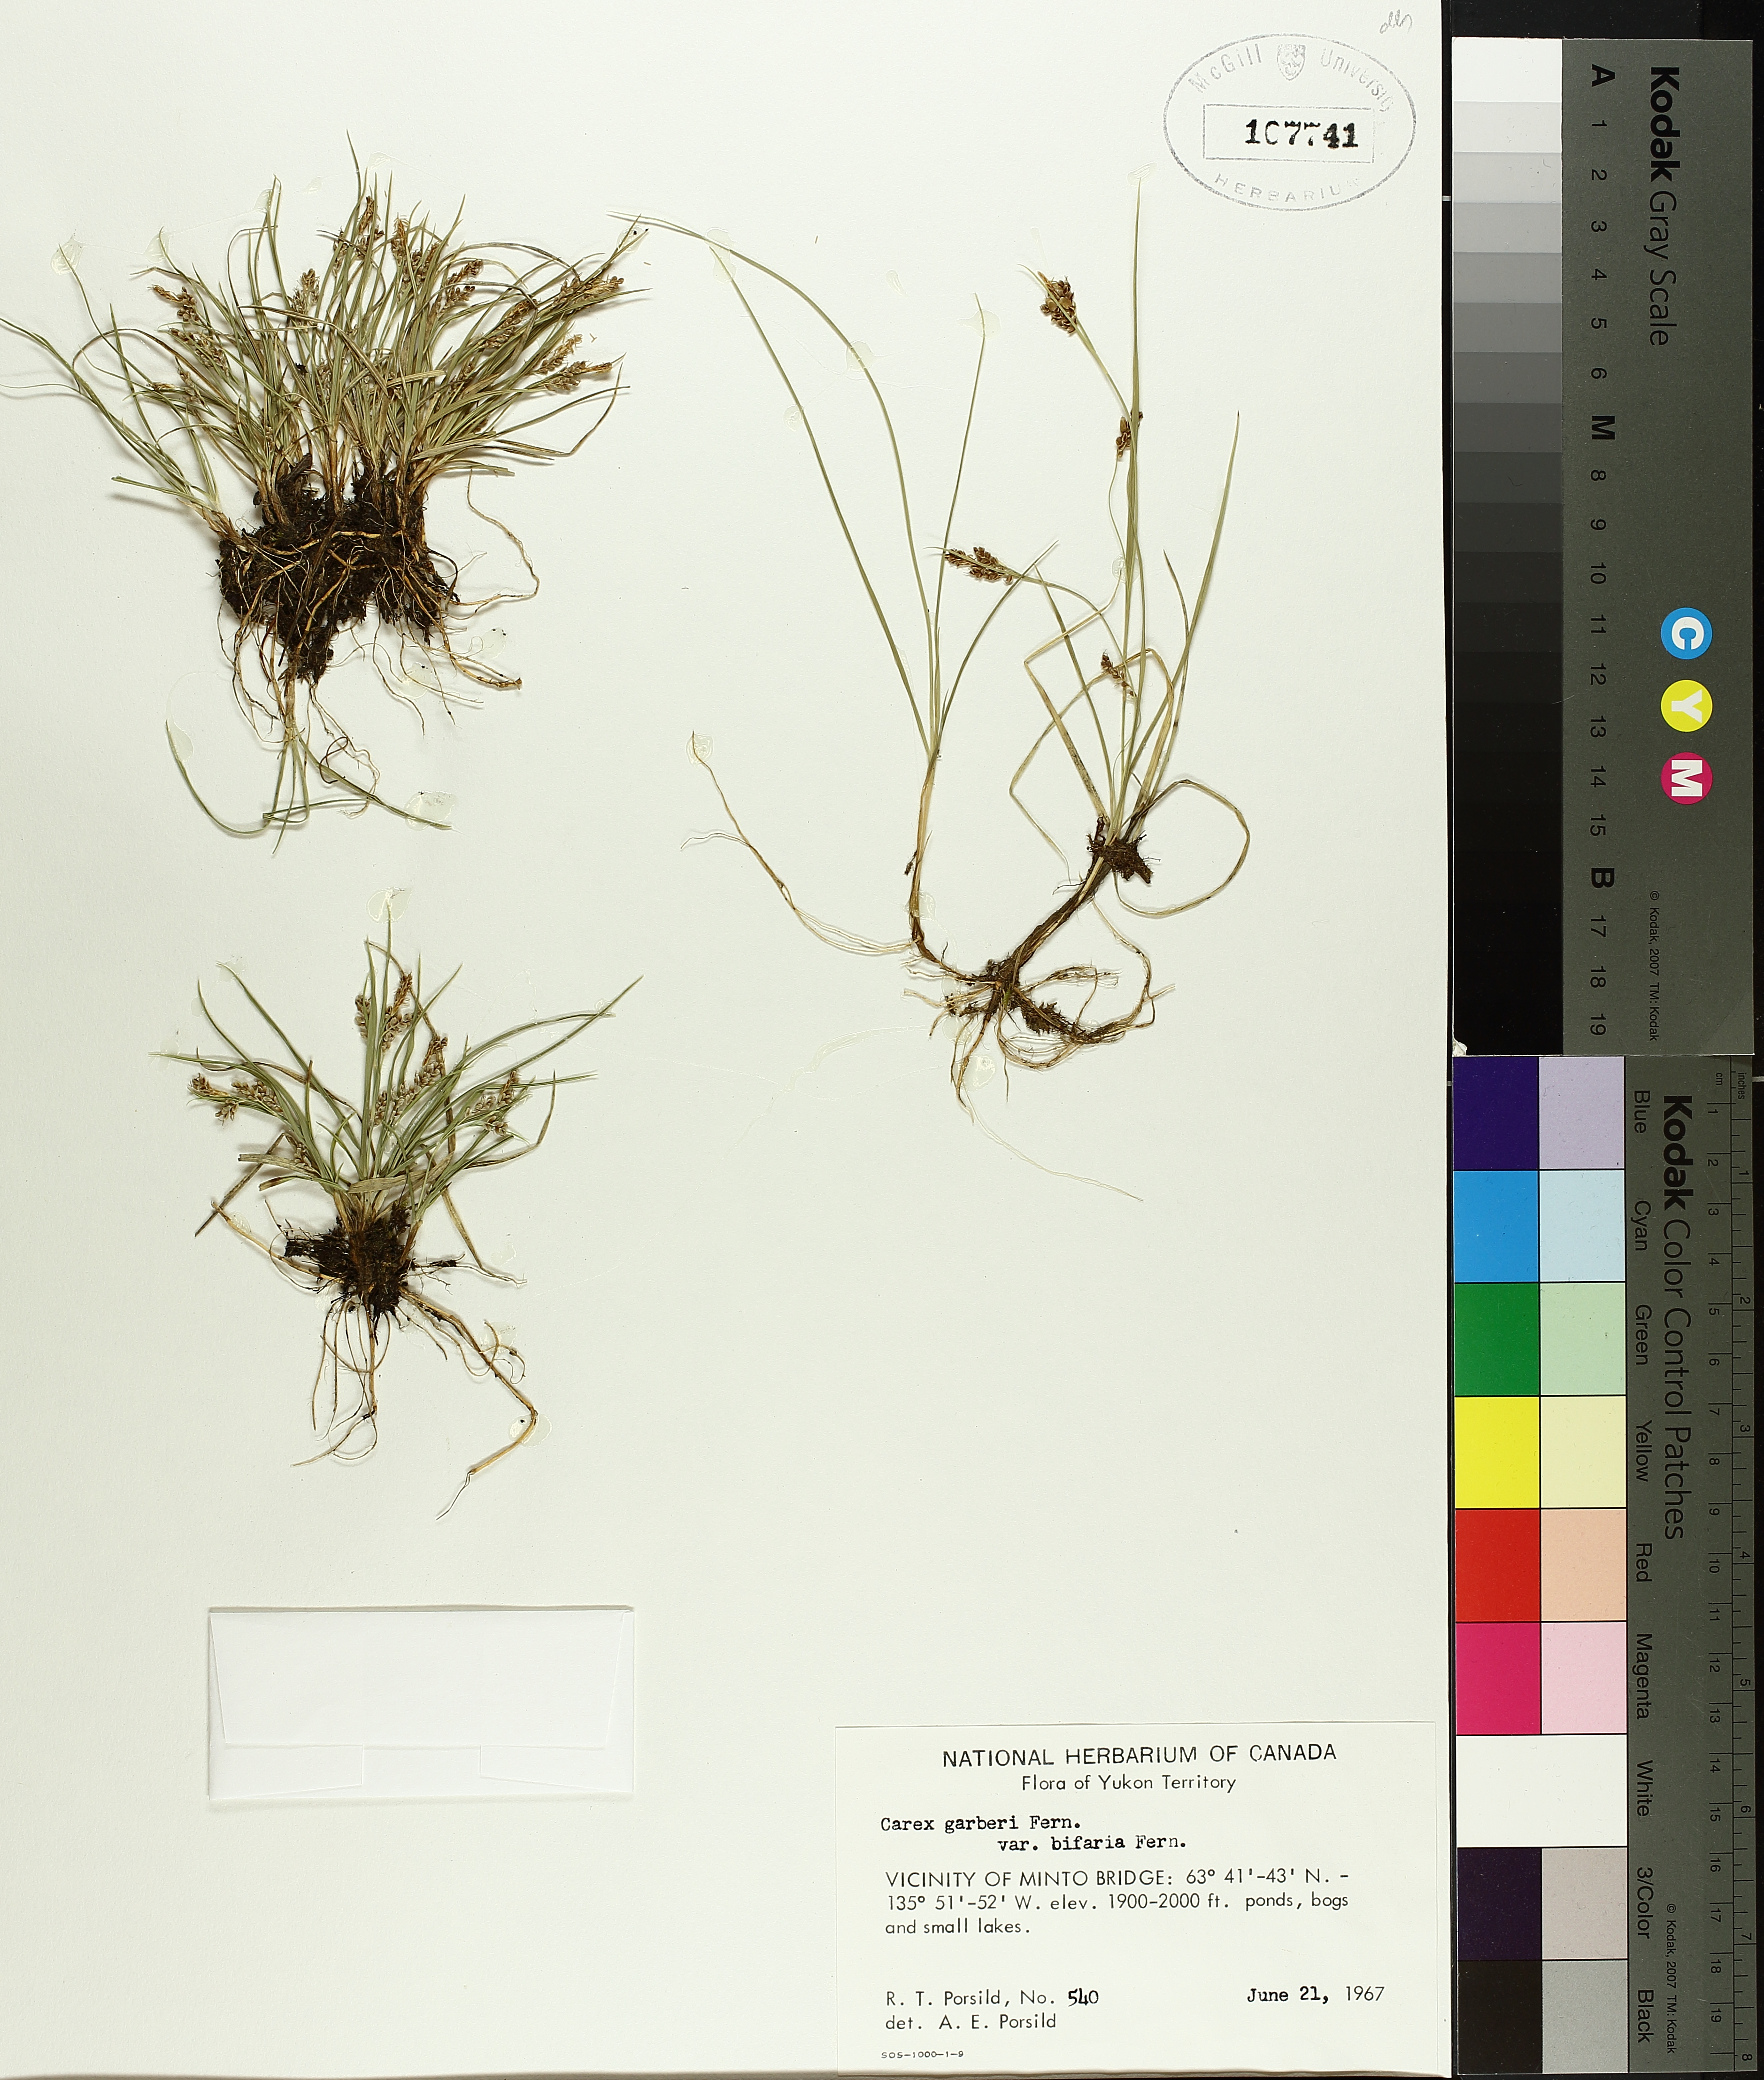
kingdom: Plantae
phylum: Tracheophyta
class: Liliopsida
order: Poales
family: Cyperaceae
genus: Carex
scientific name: Carex garberi
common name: Elk sedge
